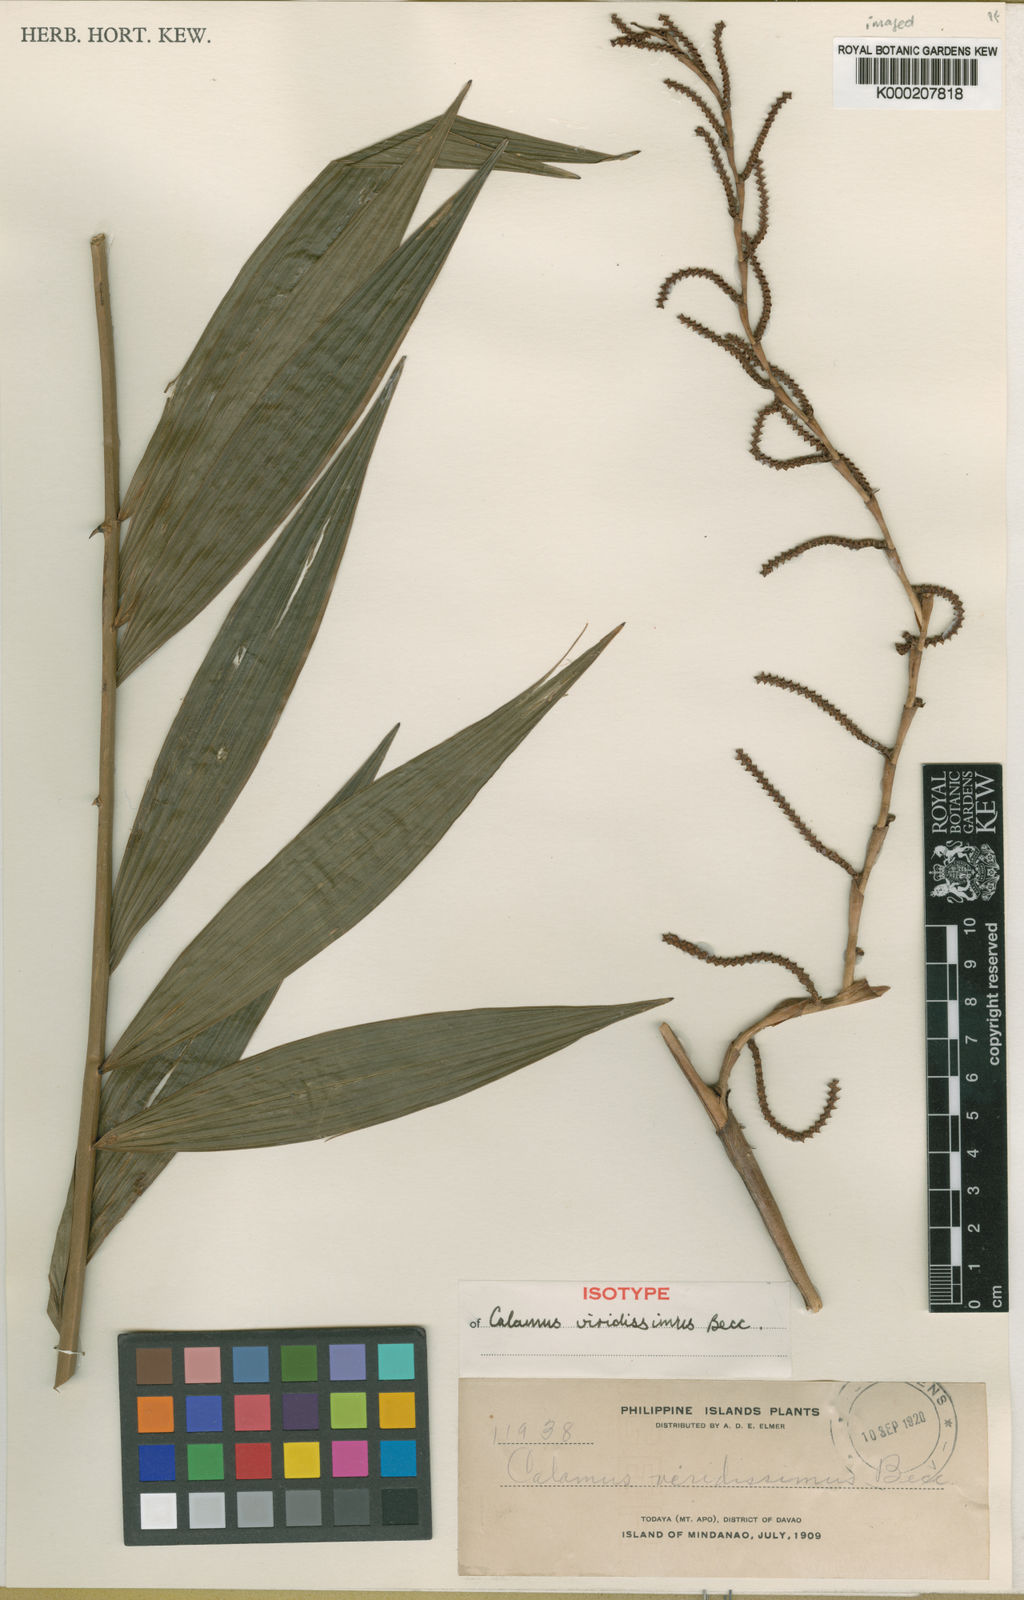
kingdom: Plantae
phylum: Tracheophyta
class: Liliopsida
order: Arecales
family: Arecaceae
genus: Calamus
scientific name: Calamus moseleyanus
